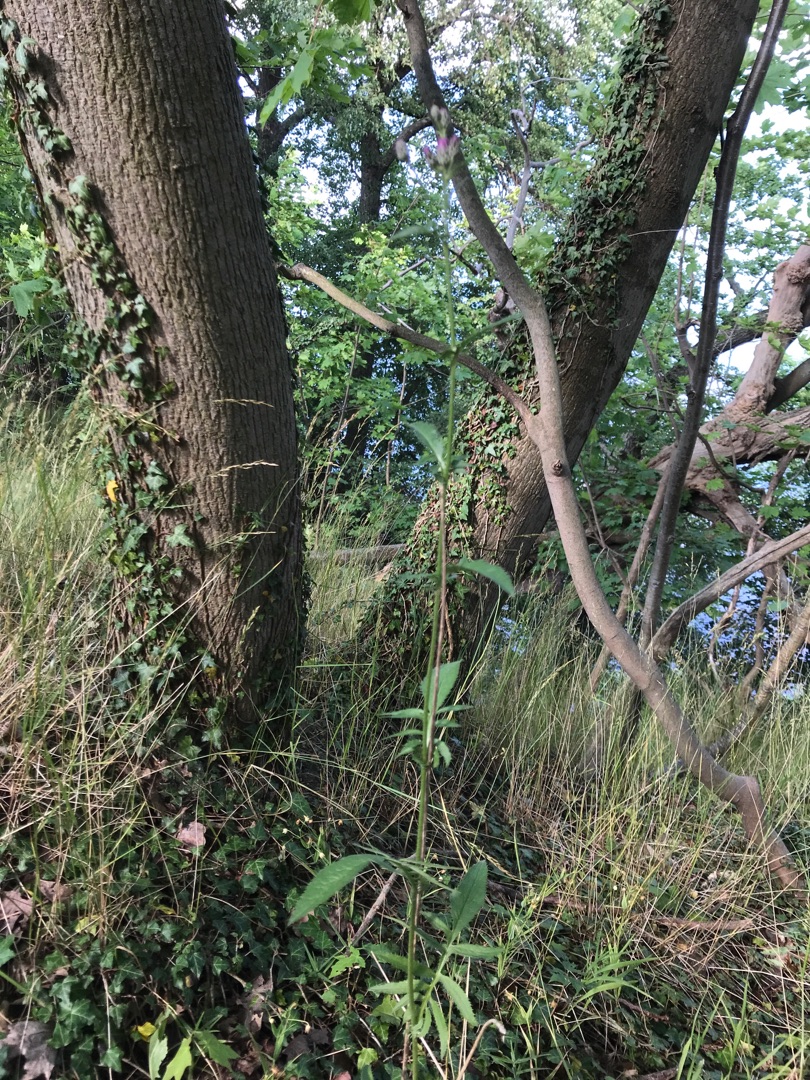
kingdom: Plantae
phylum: Tracheophyta
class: Magnoliopsida
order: Asterales
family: Asteraceae
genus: Serratula
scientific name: Serratula tinctoria
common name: Eng-skær
